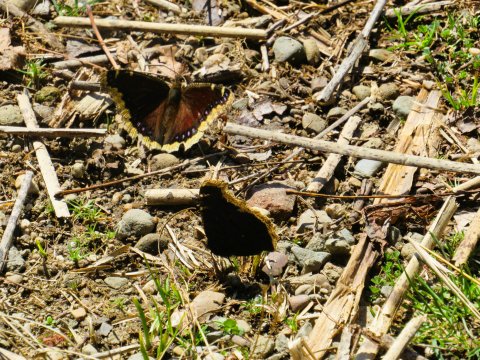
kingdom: Animalia
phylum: Arthropoda
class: Insecta
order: Lepidoptera
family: Nymphalidae
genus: Nymphalis
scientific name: Nymphalis antiopa
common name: Mourning Cloak
